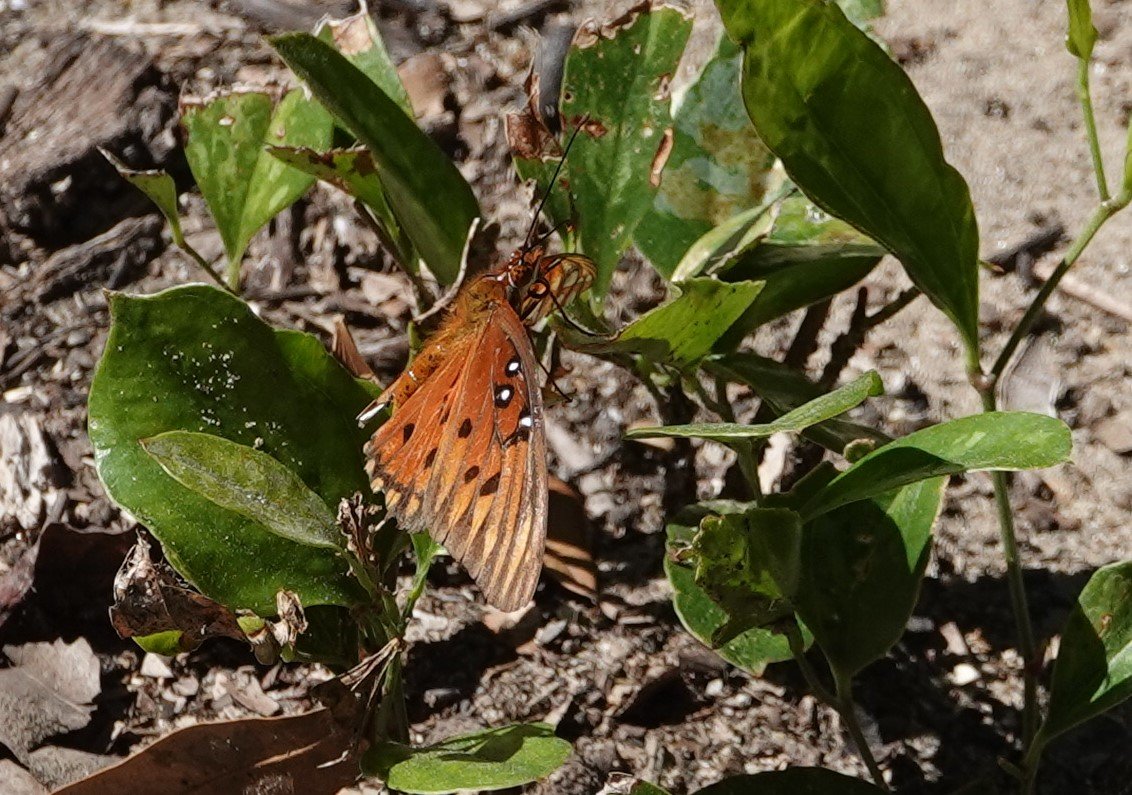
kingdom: Animalia
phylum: Arthropoda
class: Insecta
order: Lepidoptera
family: Nymphalidae
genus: Dione
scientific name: Dione vanillae
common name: Gulf Fritillary
